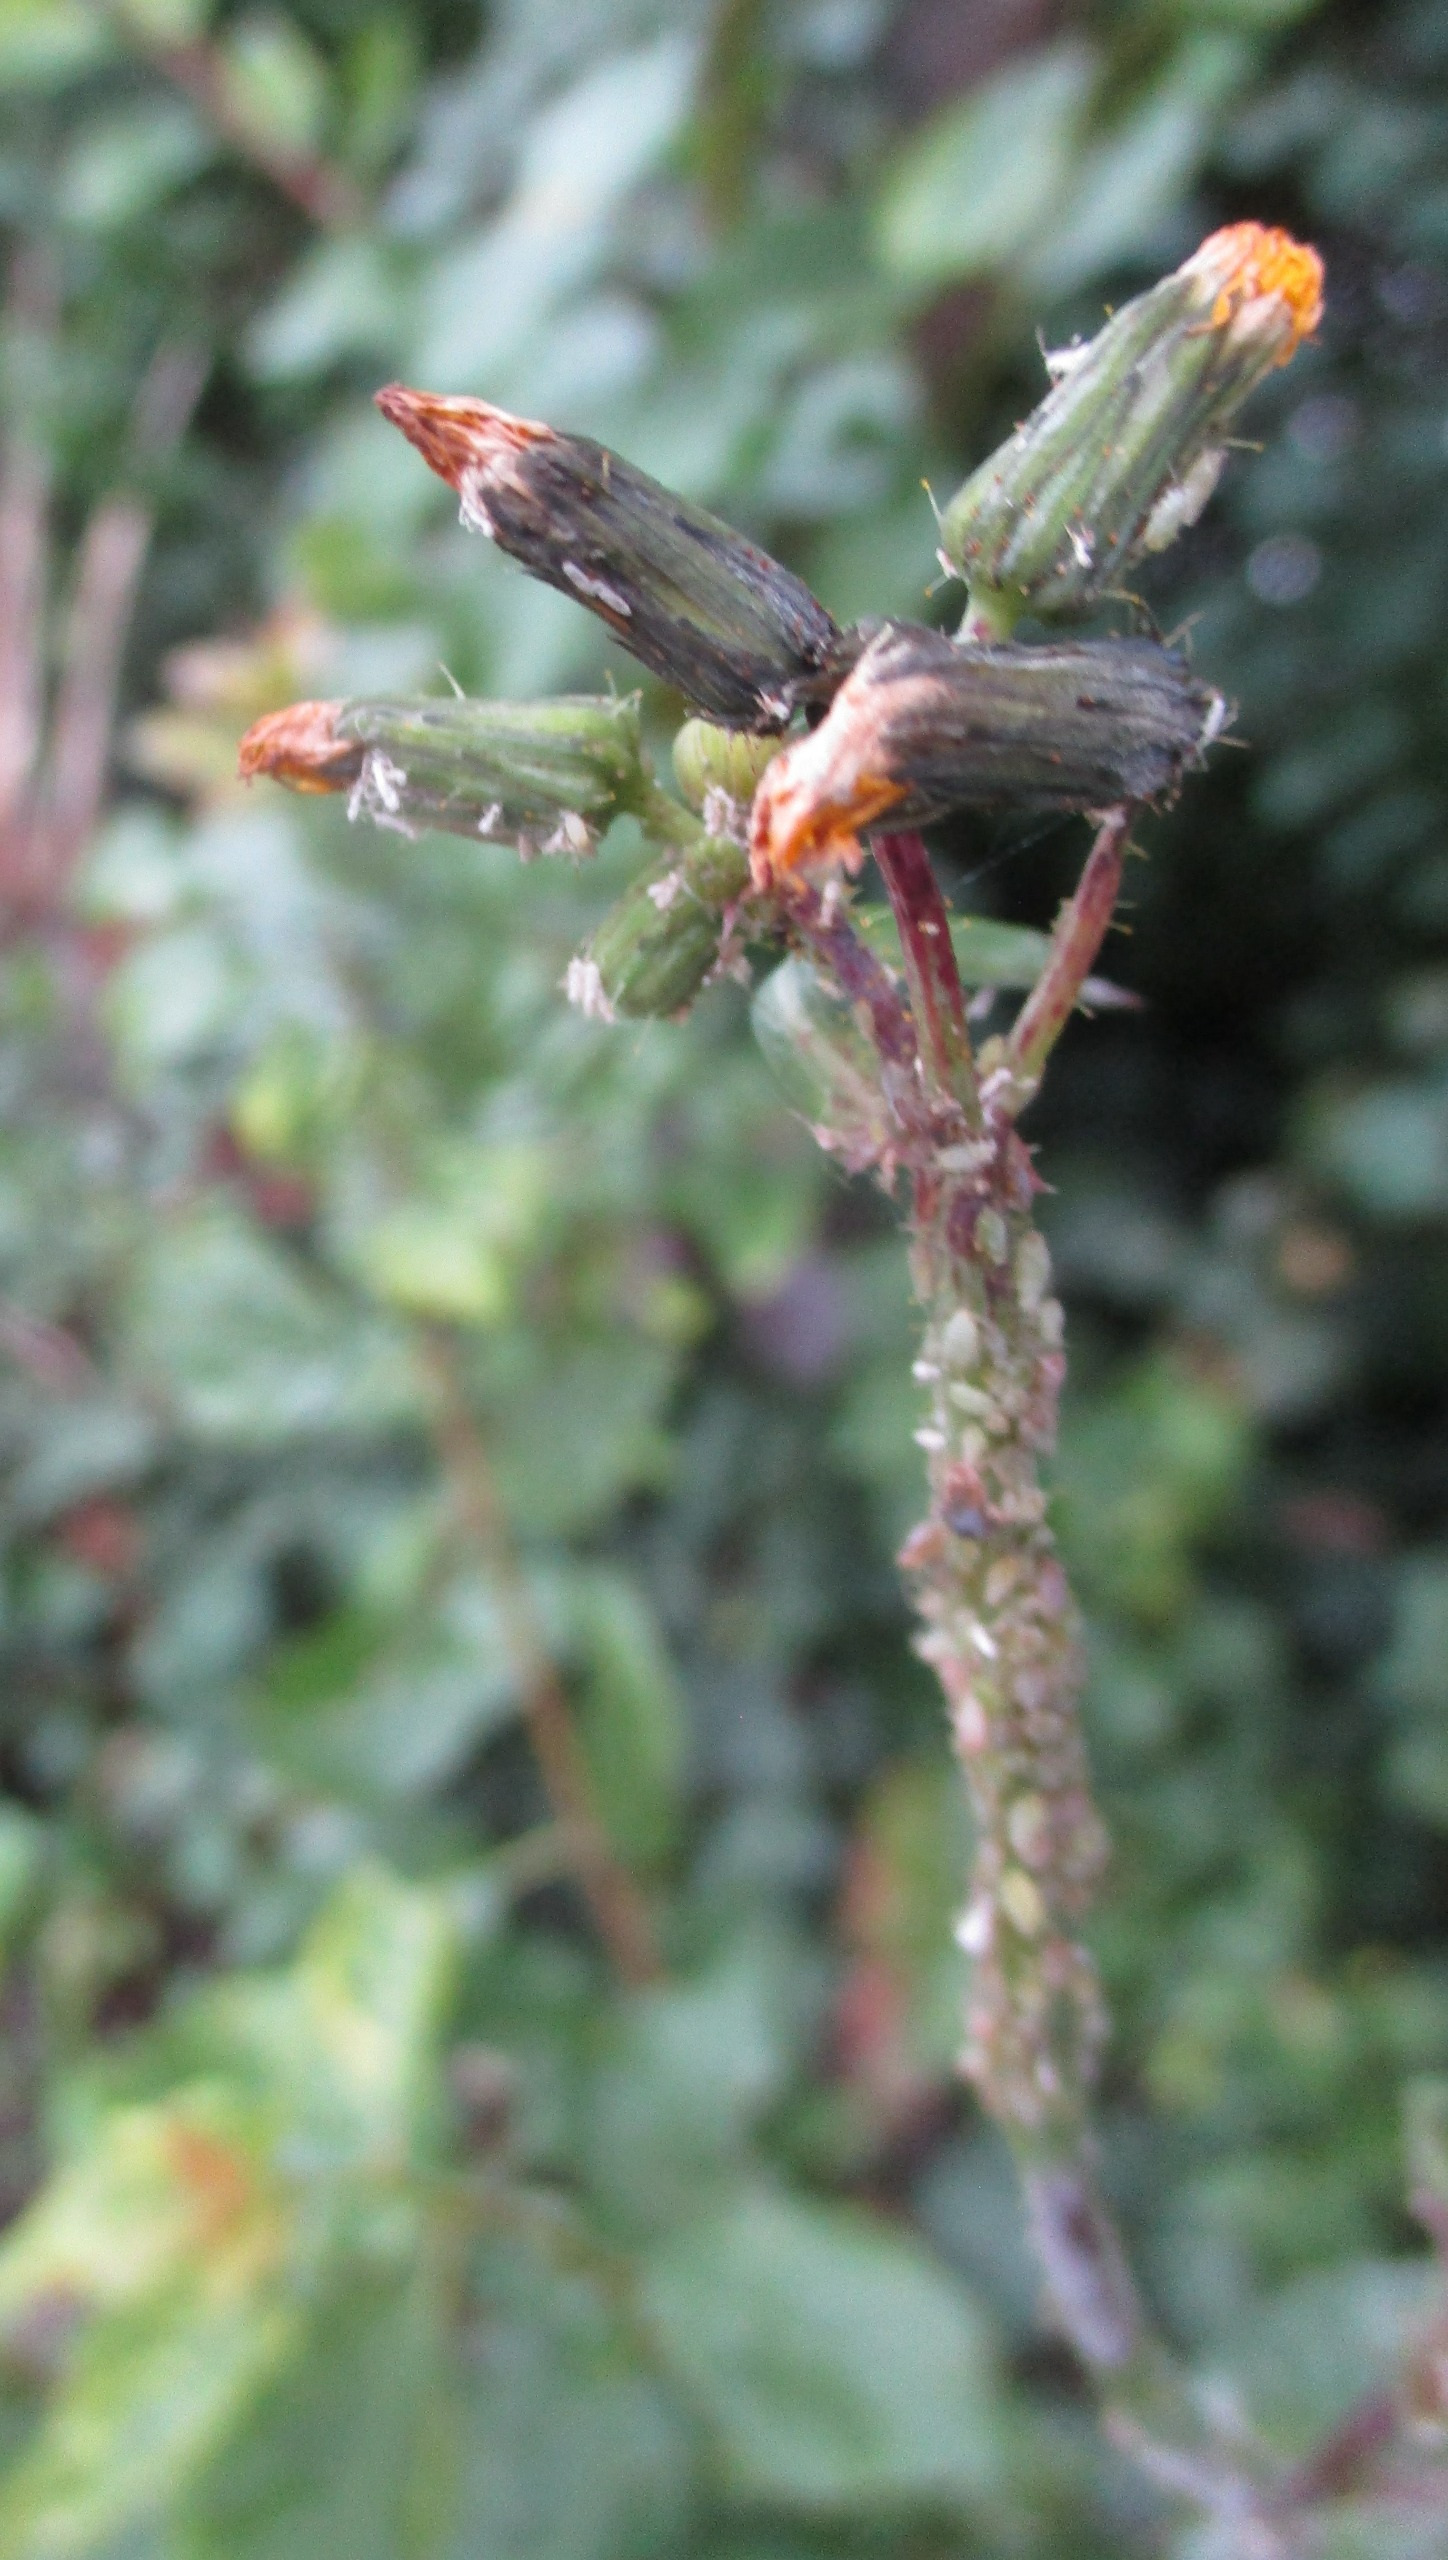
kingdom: Animalia
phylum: Arthropoda
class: Insecta
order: Hemiptera
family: Aphididae
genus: Hyperomyzus
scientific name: Hyperomyzus lactucae
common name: Solbærbladlus
